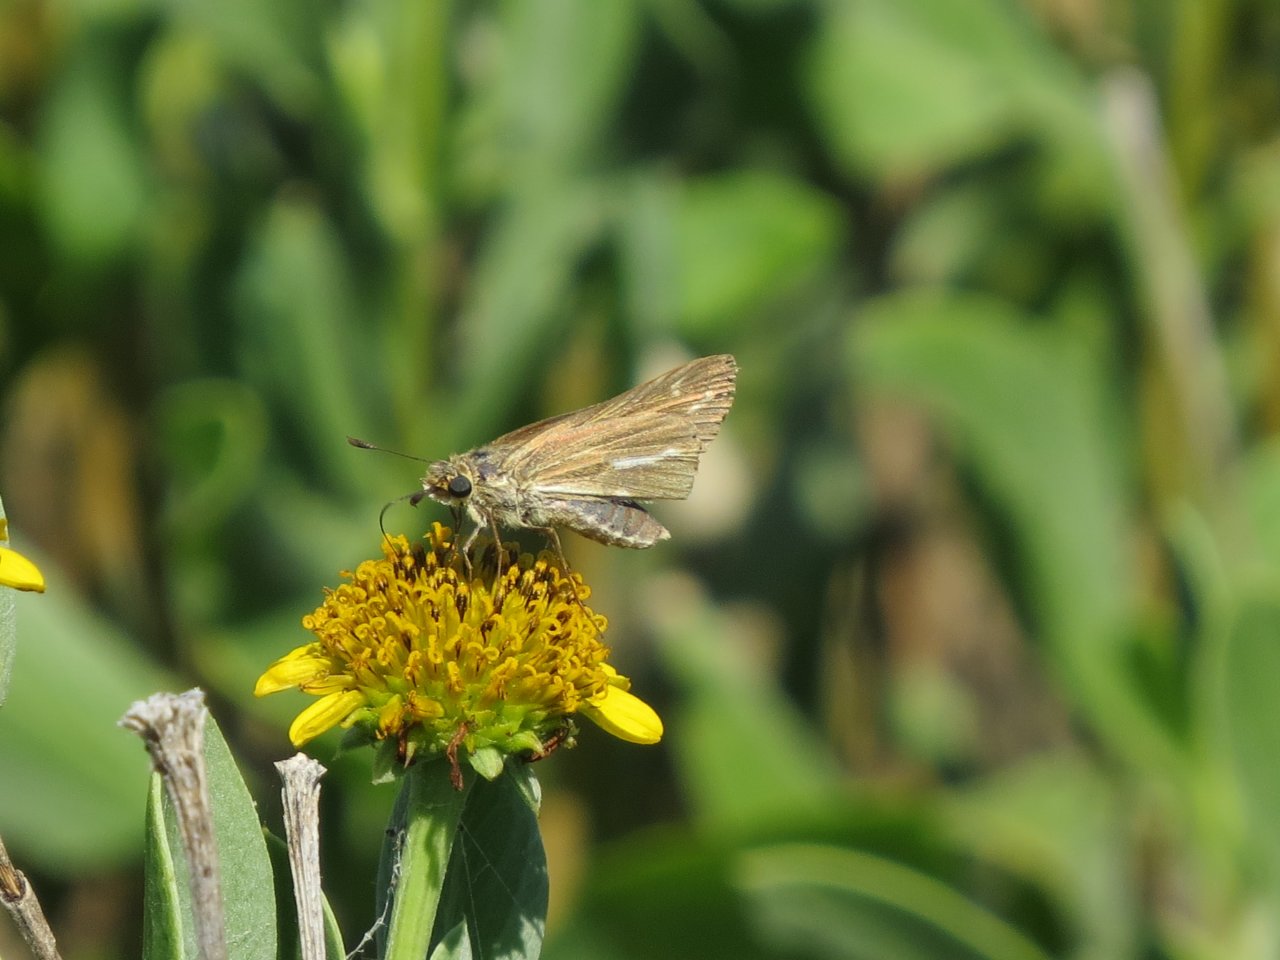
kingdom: Animalia
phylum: Arthropoda
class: Insecta
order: Lepidoptera
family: Hesperiidae
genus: Panoquina
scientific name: Panoquina panoquin
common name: Salt Marsh Skipper
